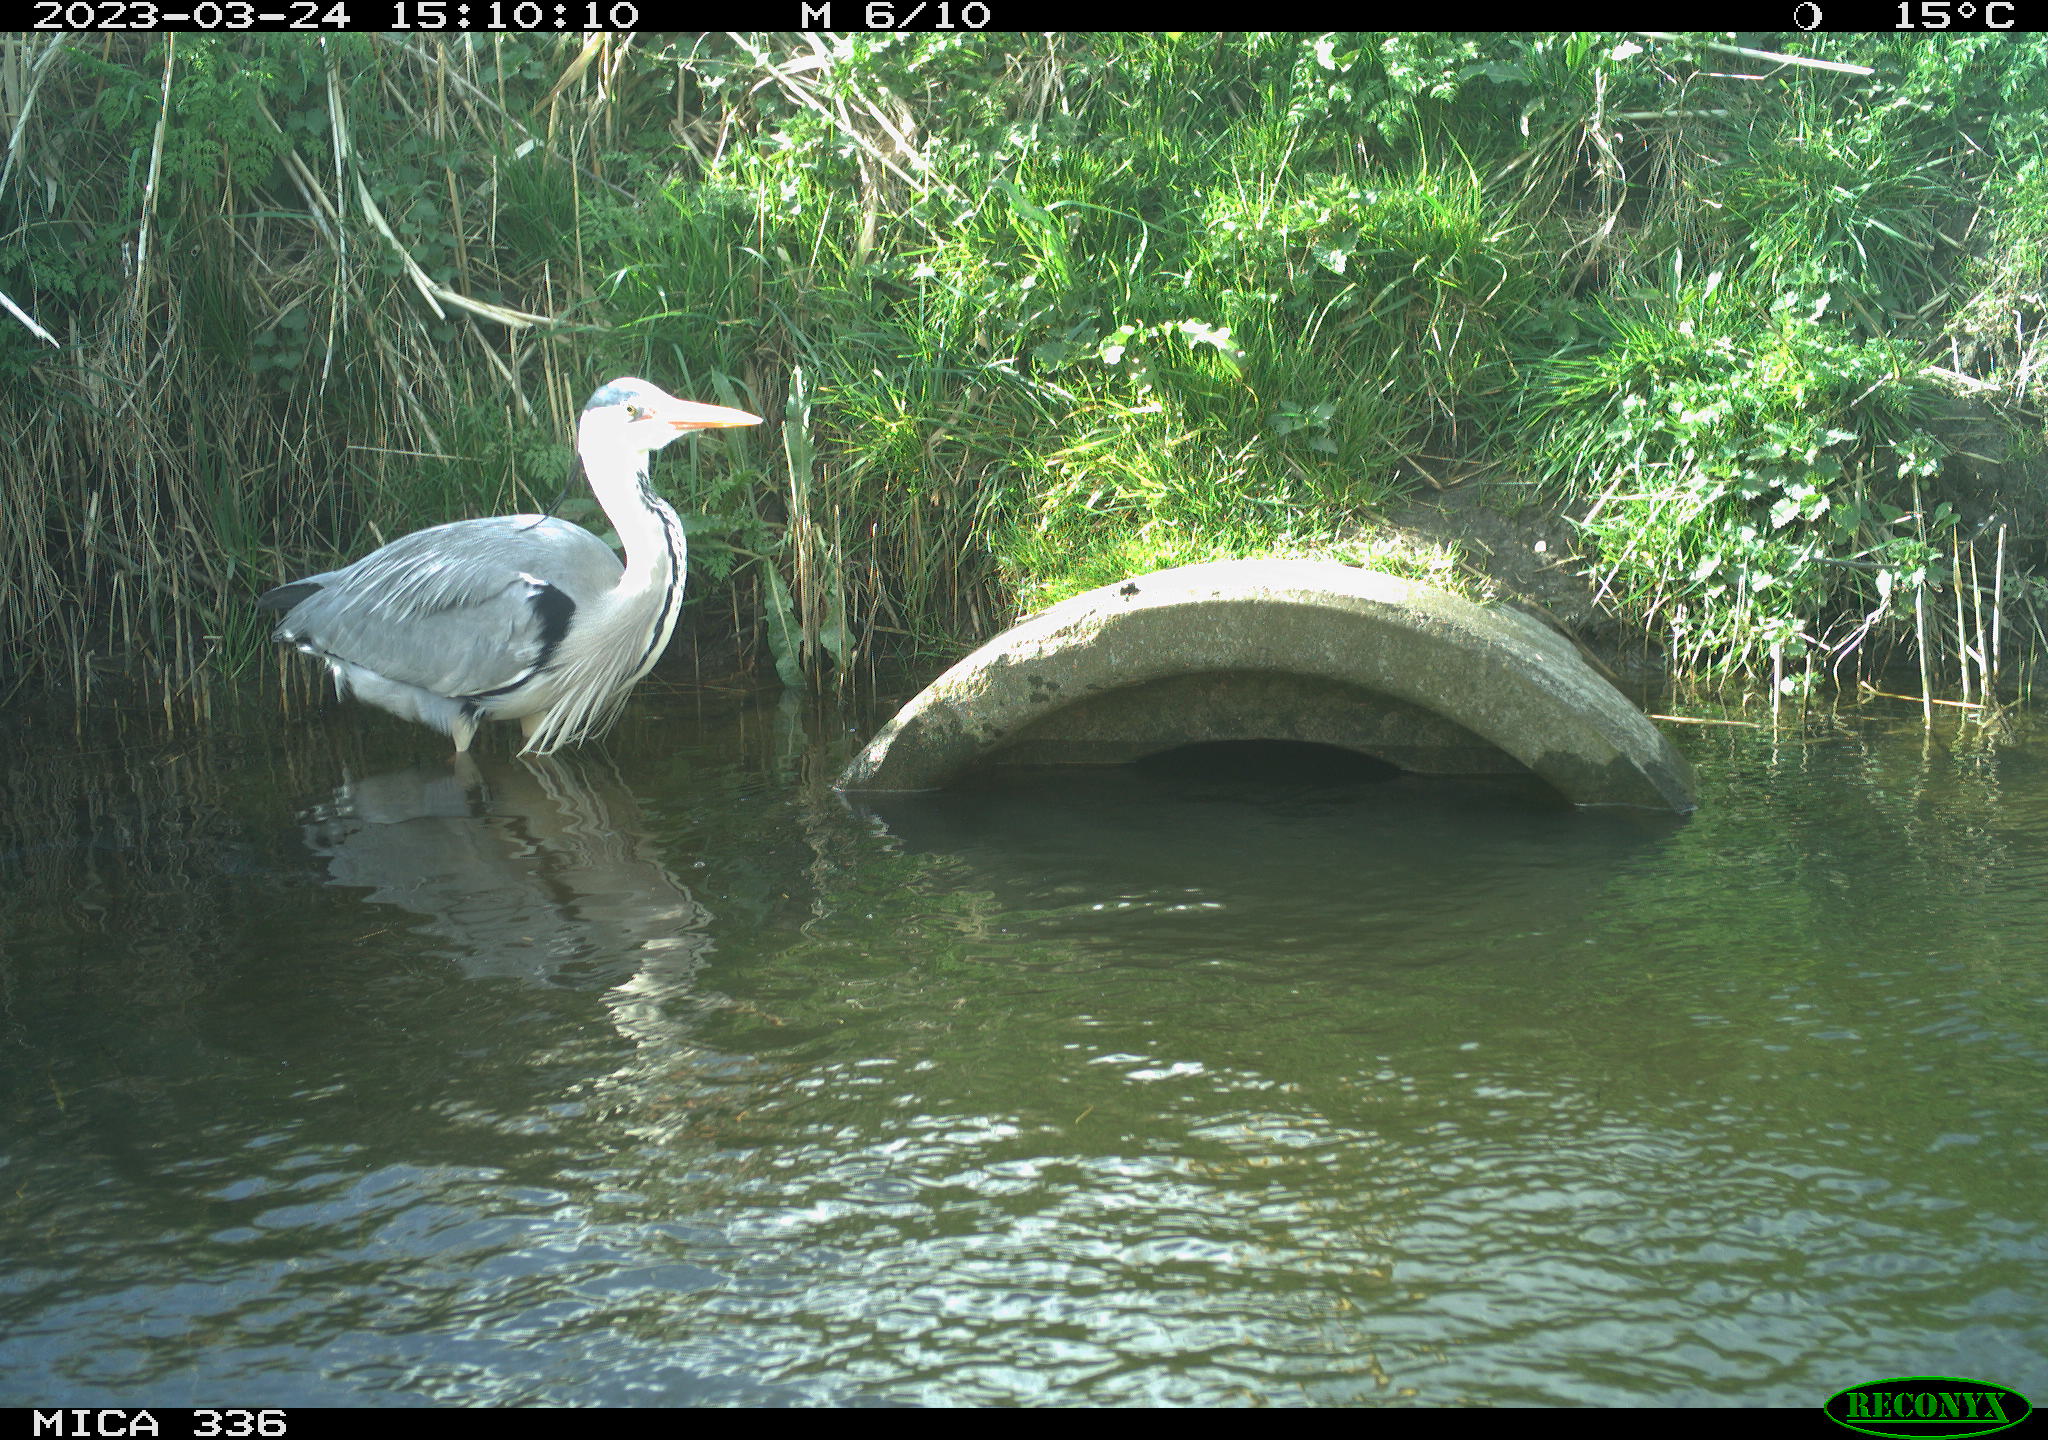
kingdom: Animalia
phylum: Chordata
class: Aves
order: Pelecaniformes
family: Ardeidae
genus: Ardea
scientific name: Ardea
